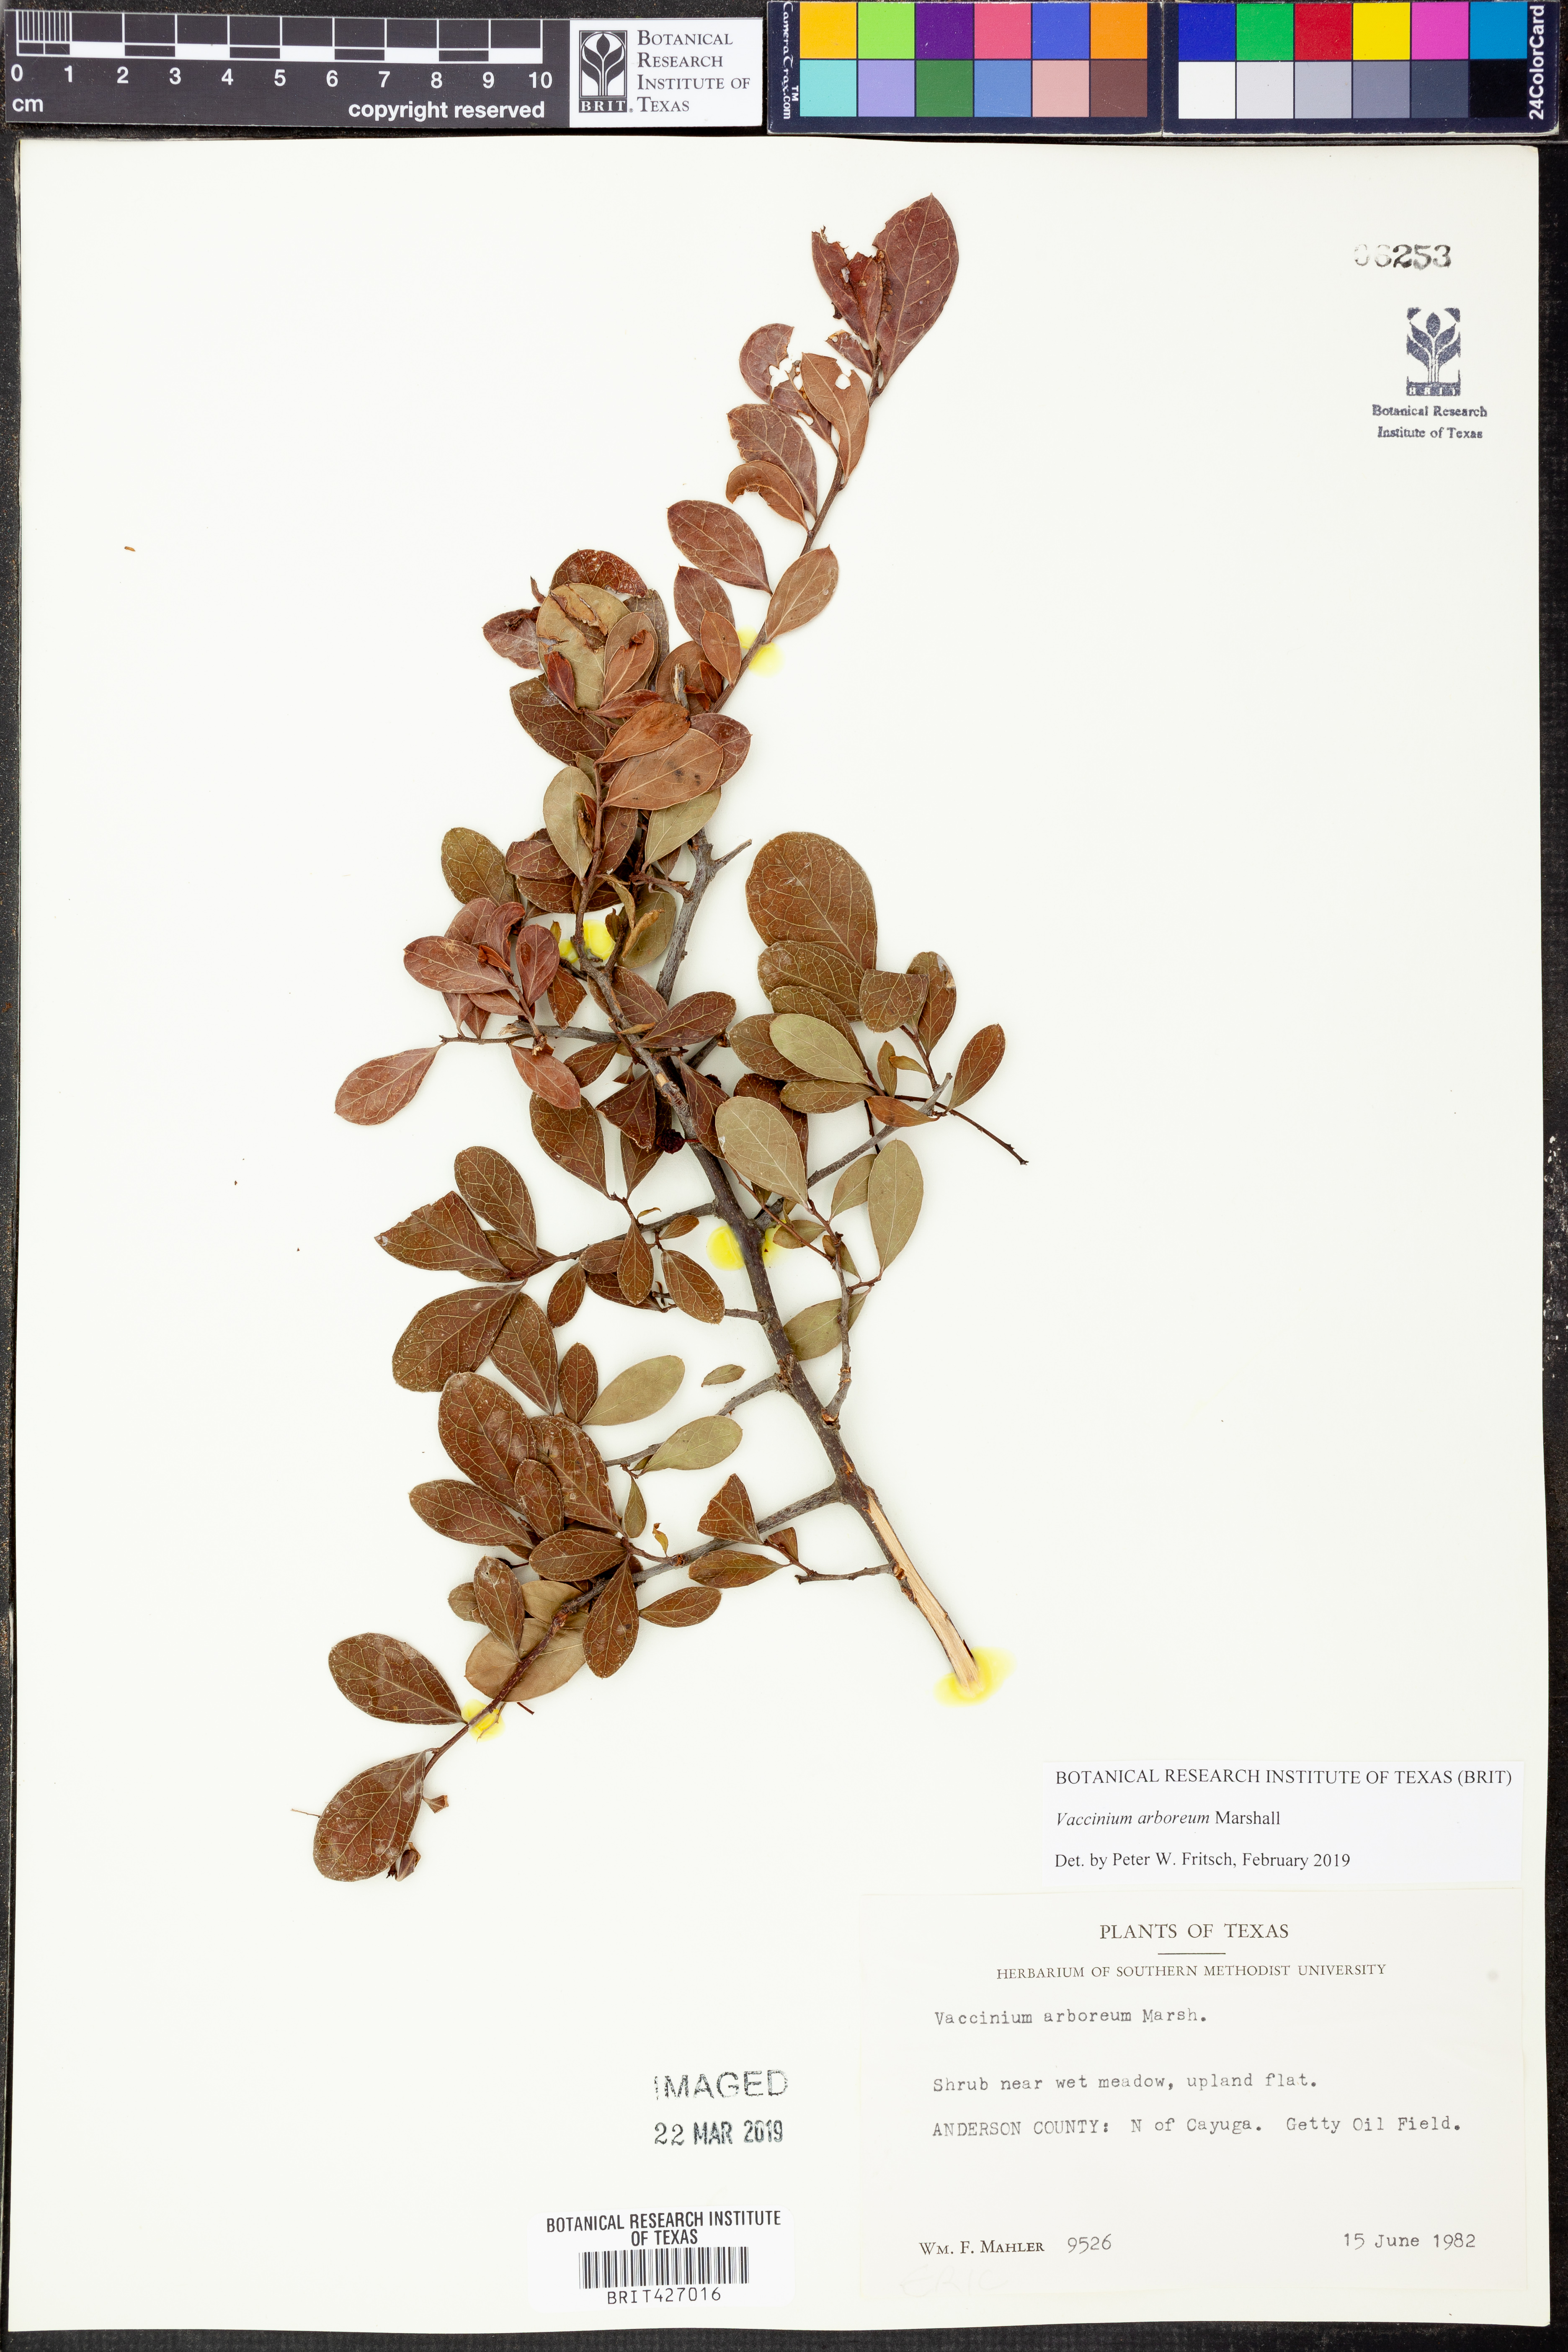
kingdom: Plantae
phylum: Tracheophyta
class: Magnoliopsida
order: Ericales
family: Ericaceae
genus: Vaccinium
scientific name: Vaccinium arboreum
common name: Farkleberry
